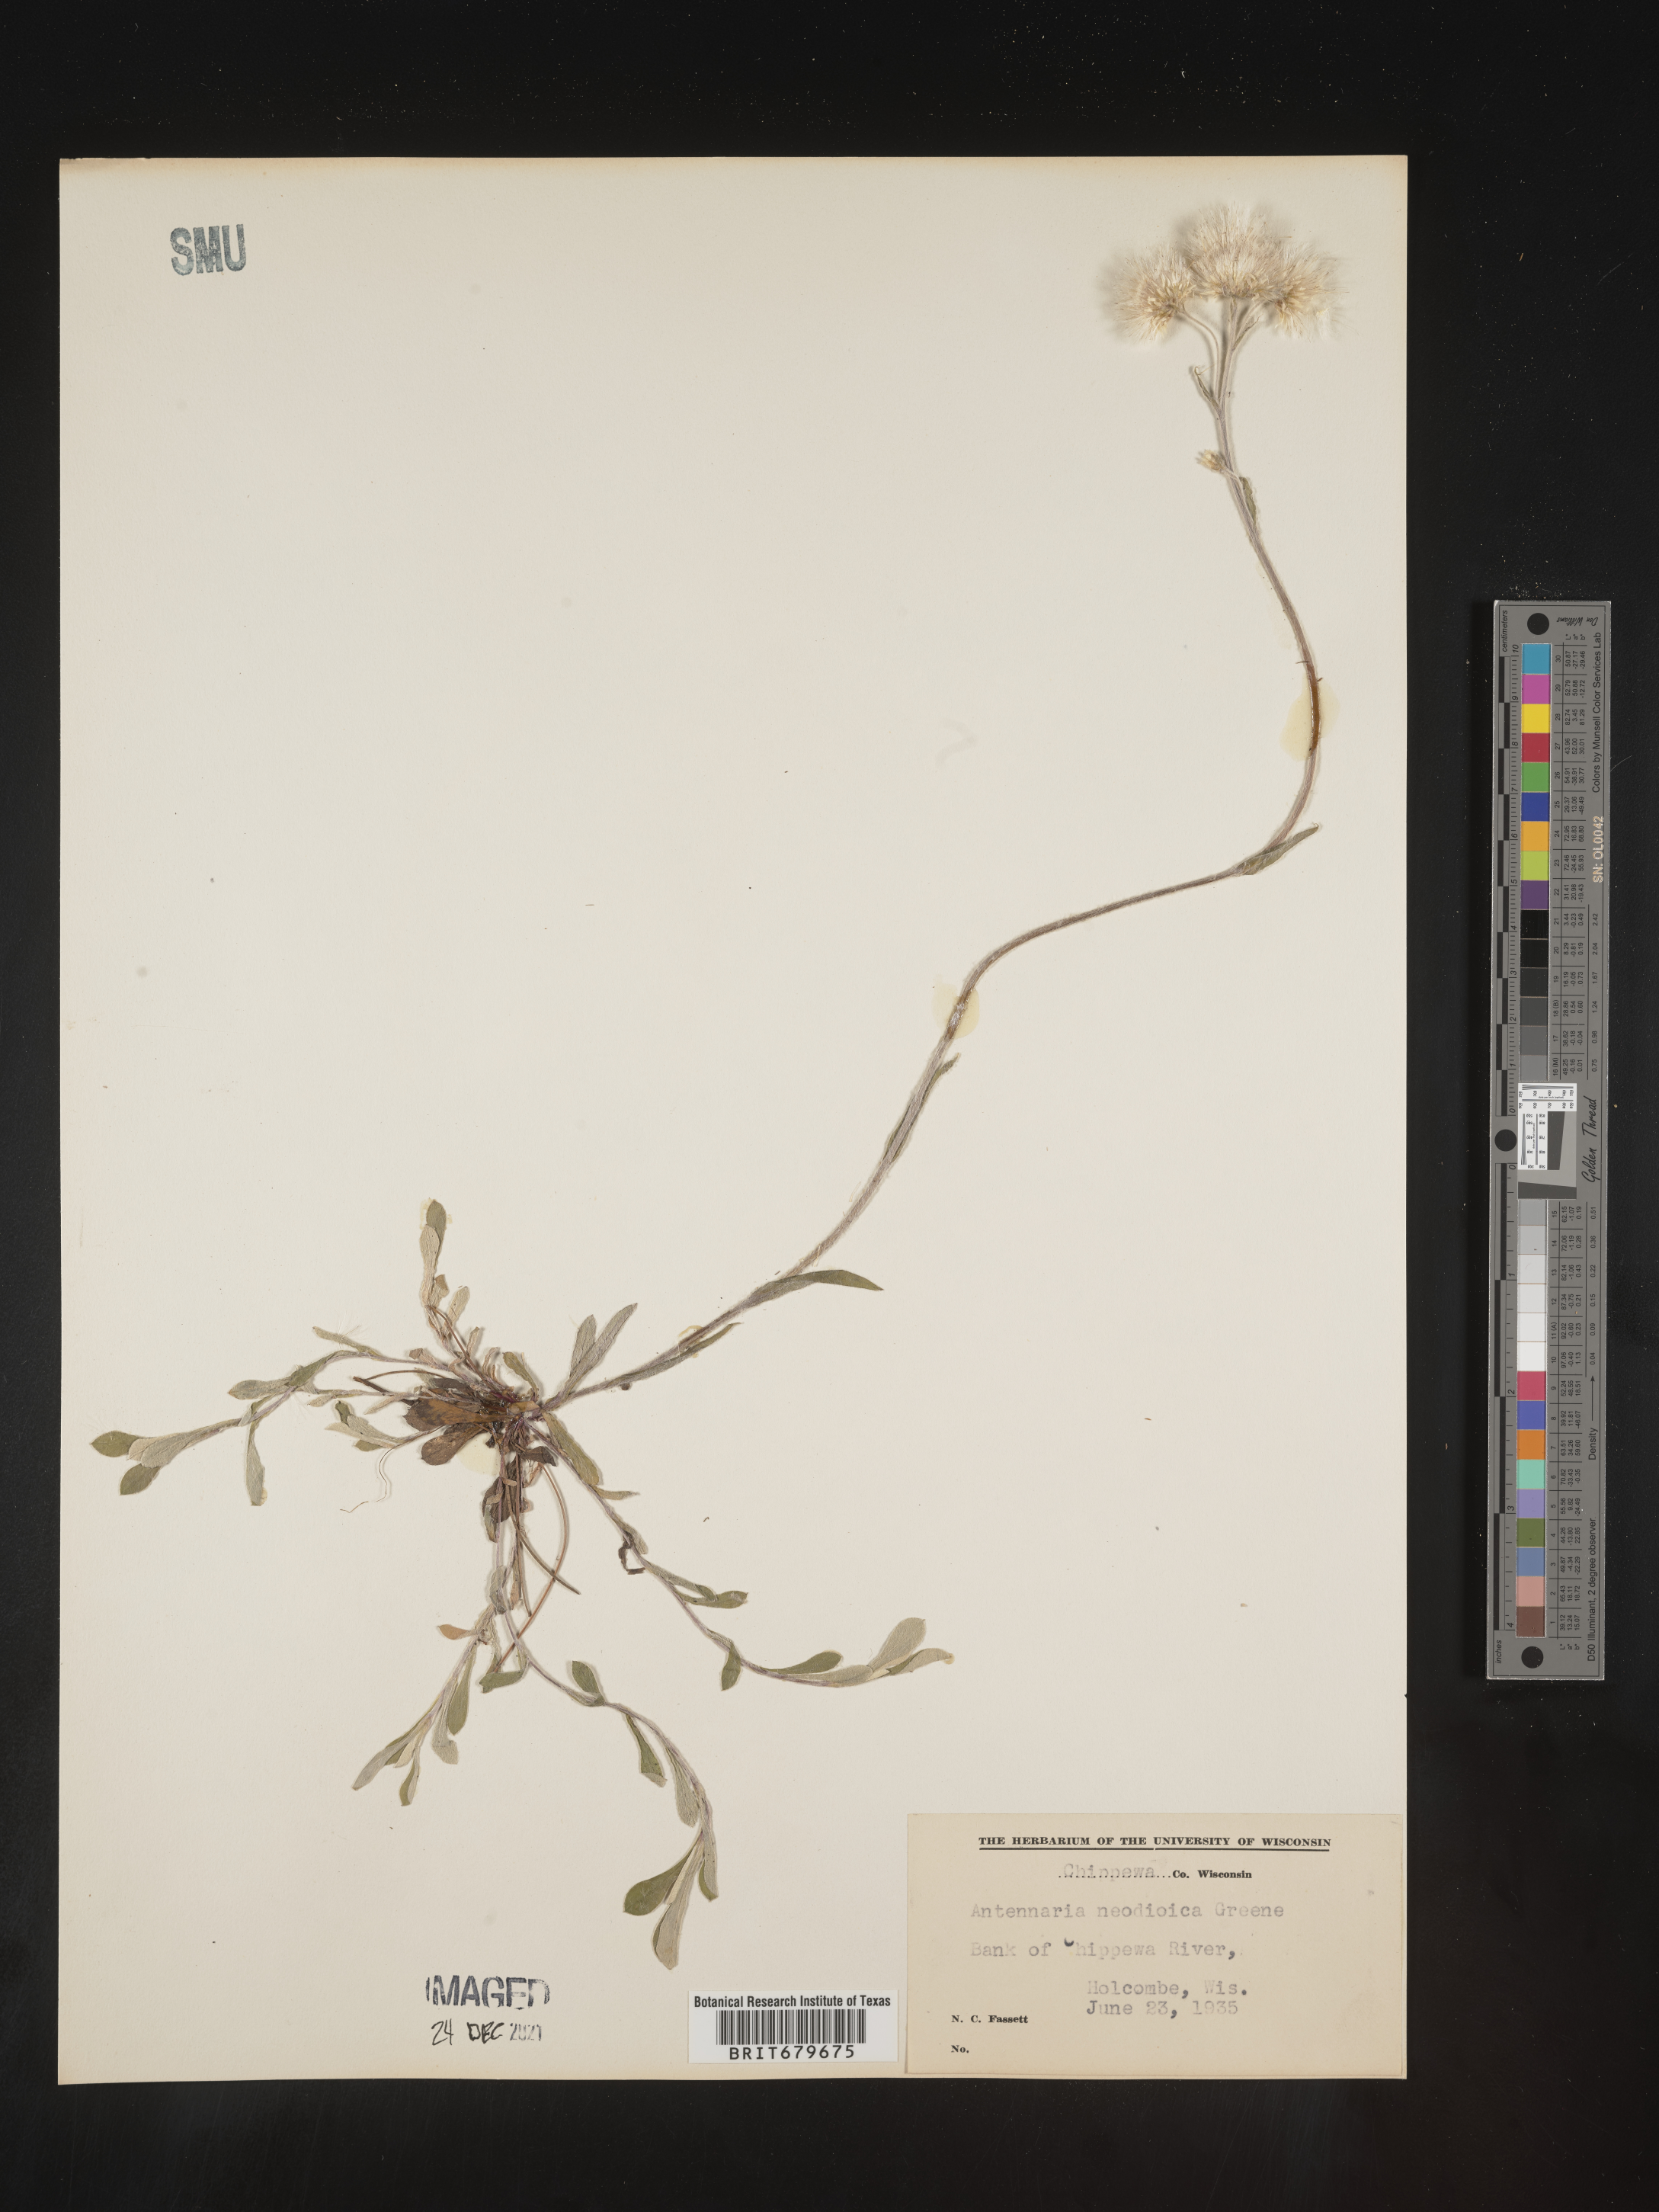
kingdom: Plantae
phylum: Tracheophyta
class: Magnoliopsida
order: Asterales
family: Asteraceae
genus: Antennaria
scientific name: Antennaria howellii
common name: Howell's pussytoes
